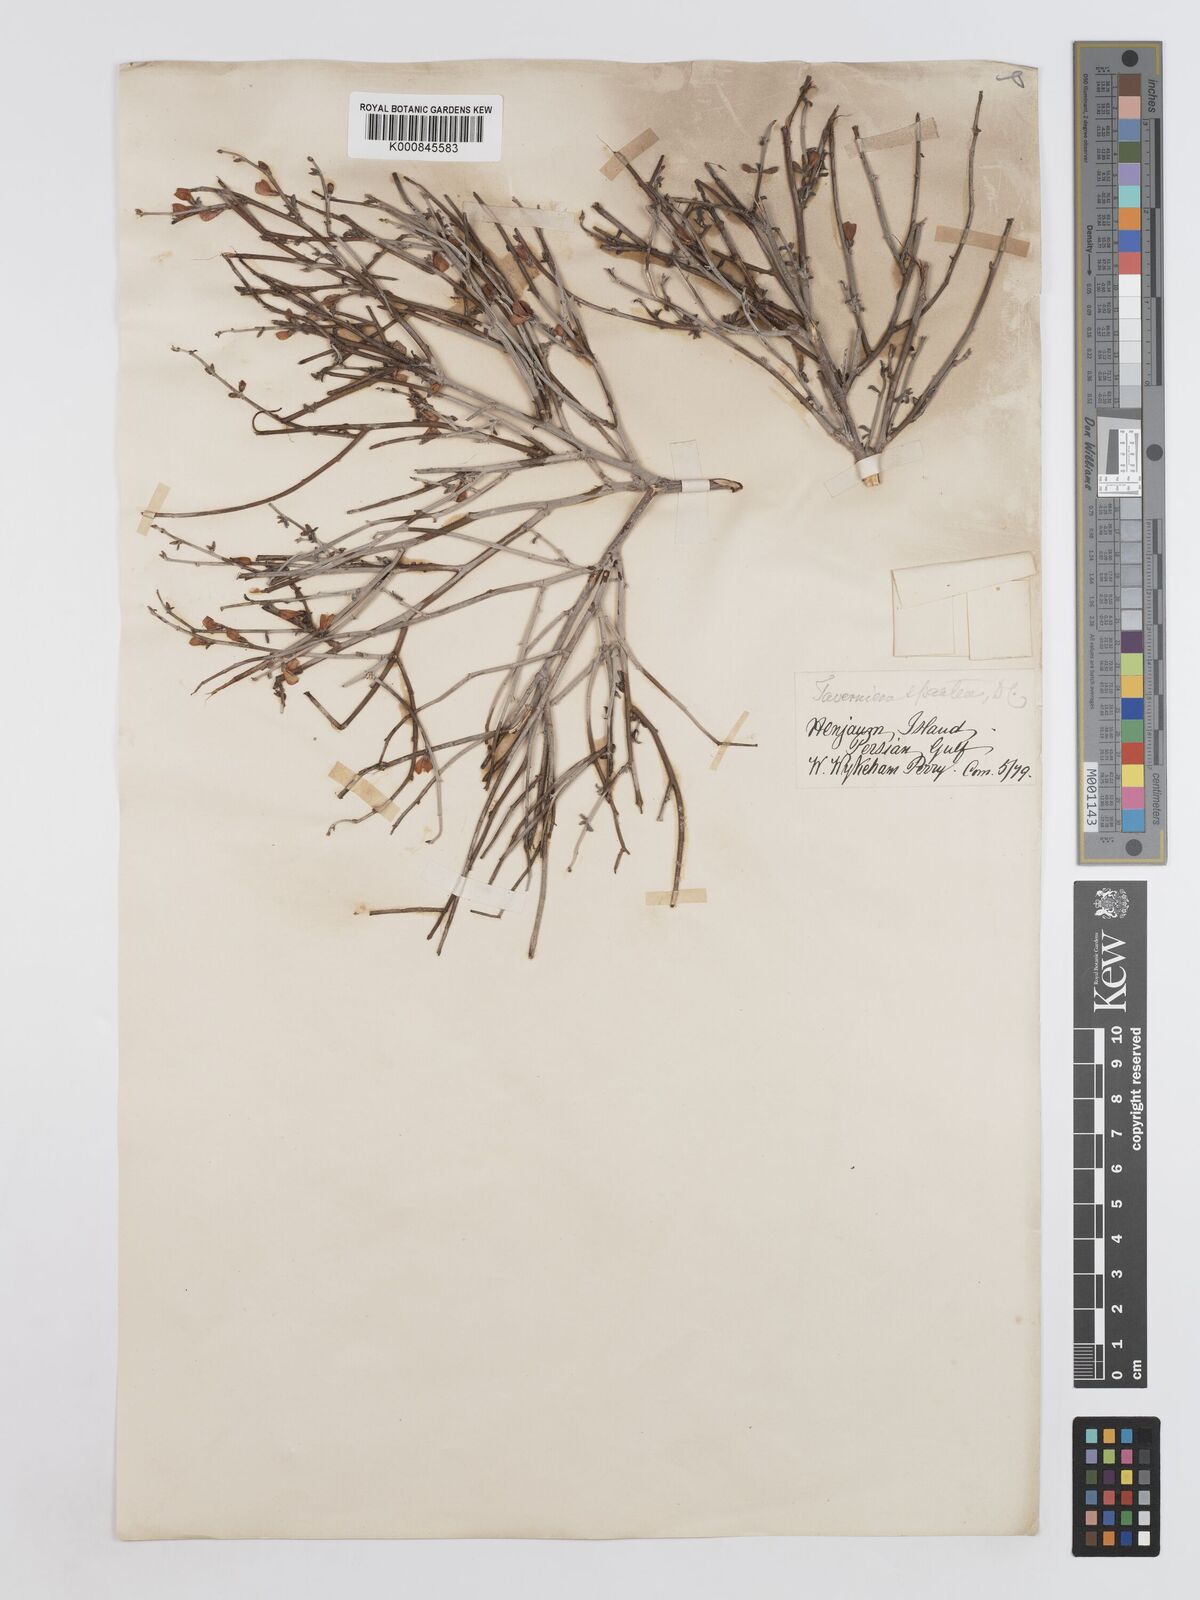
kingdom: Plantae
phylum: Tracheophyta
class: Magnoliopsida
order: Fabales
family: Fabaceae
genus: Taverniera
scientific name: Taverniera spartea
